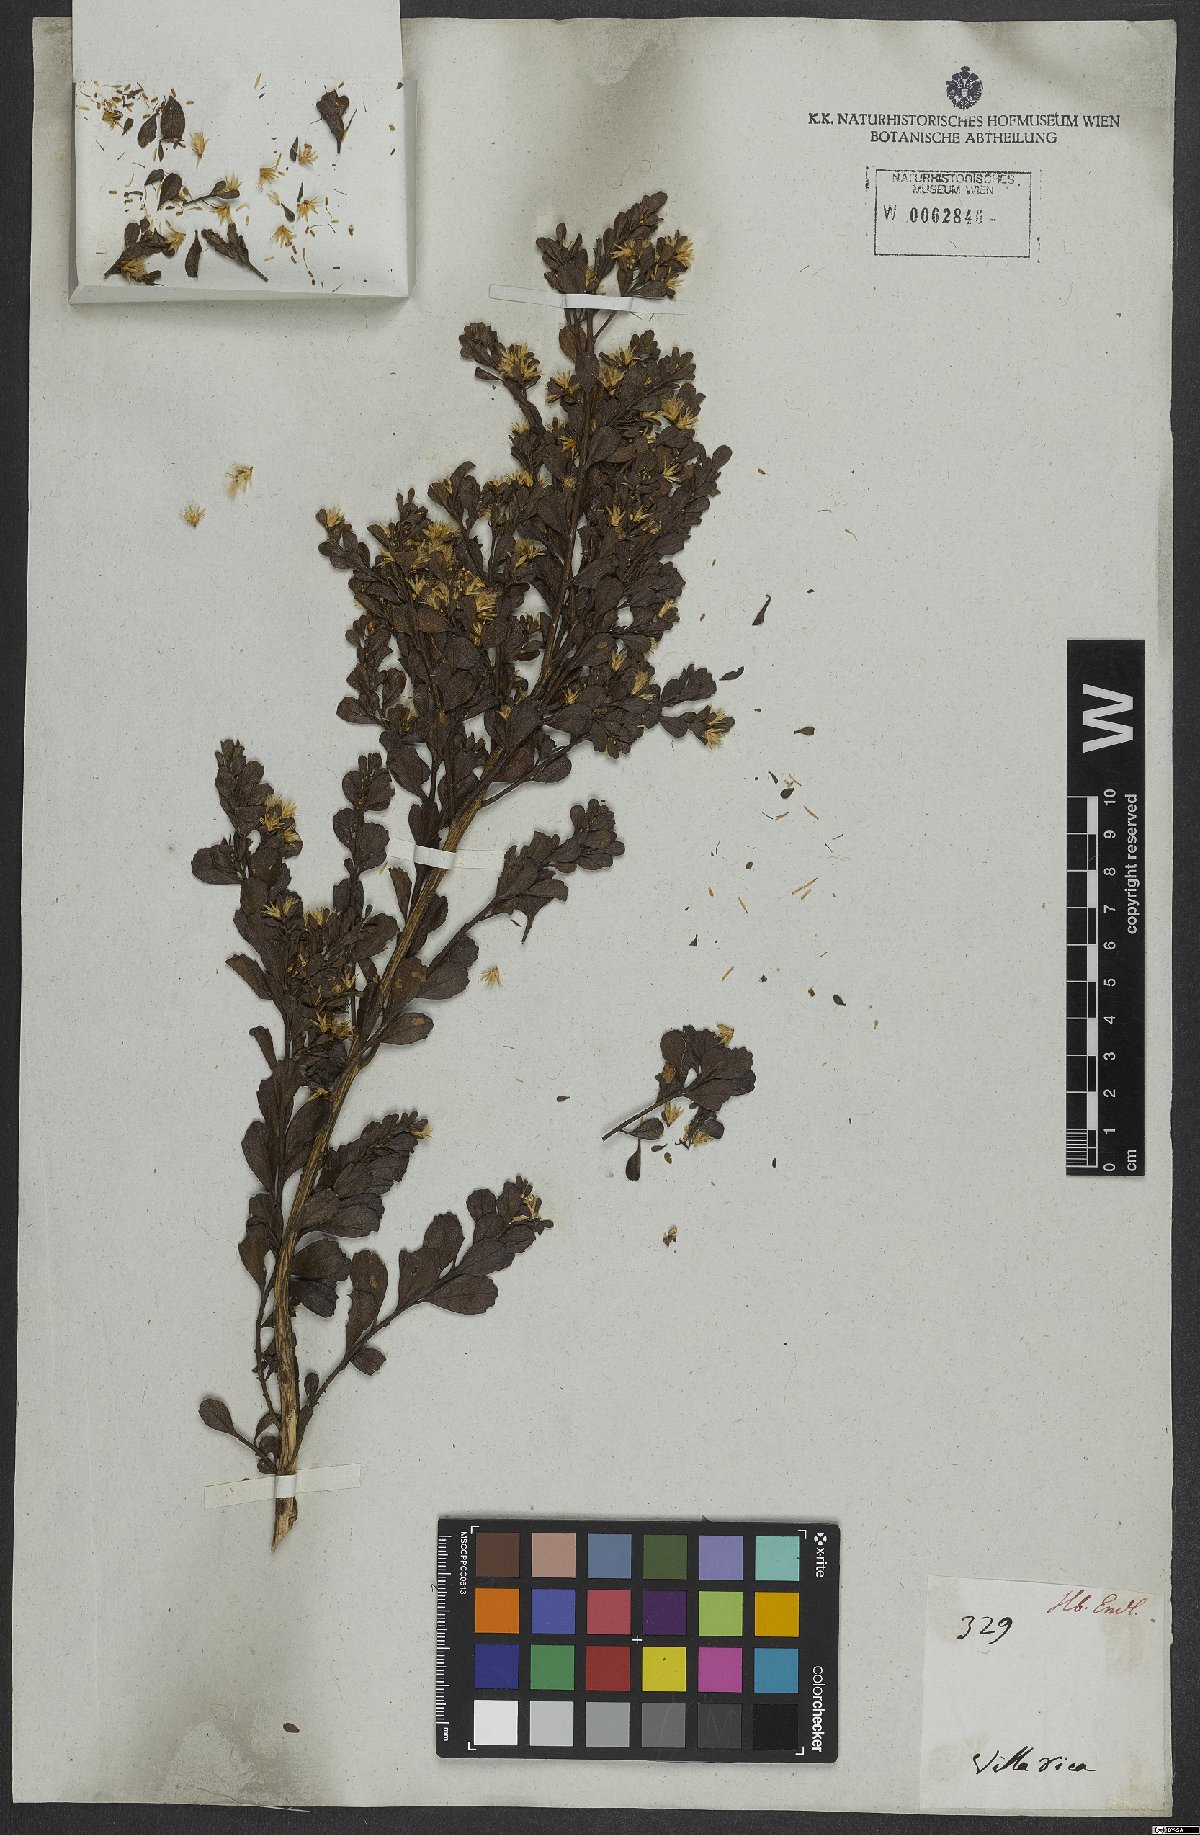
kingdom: Plantae
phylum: Tracheophyta
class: Magnoliopsida
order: Asterales
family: Asteraceae
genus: Baccharis
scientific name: Baccharis
